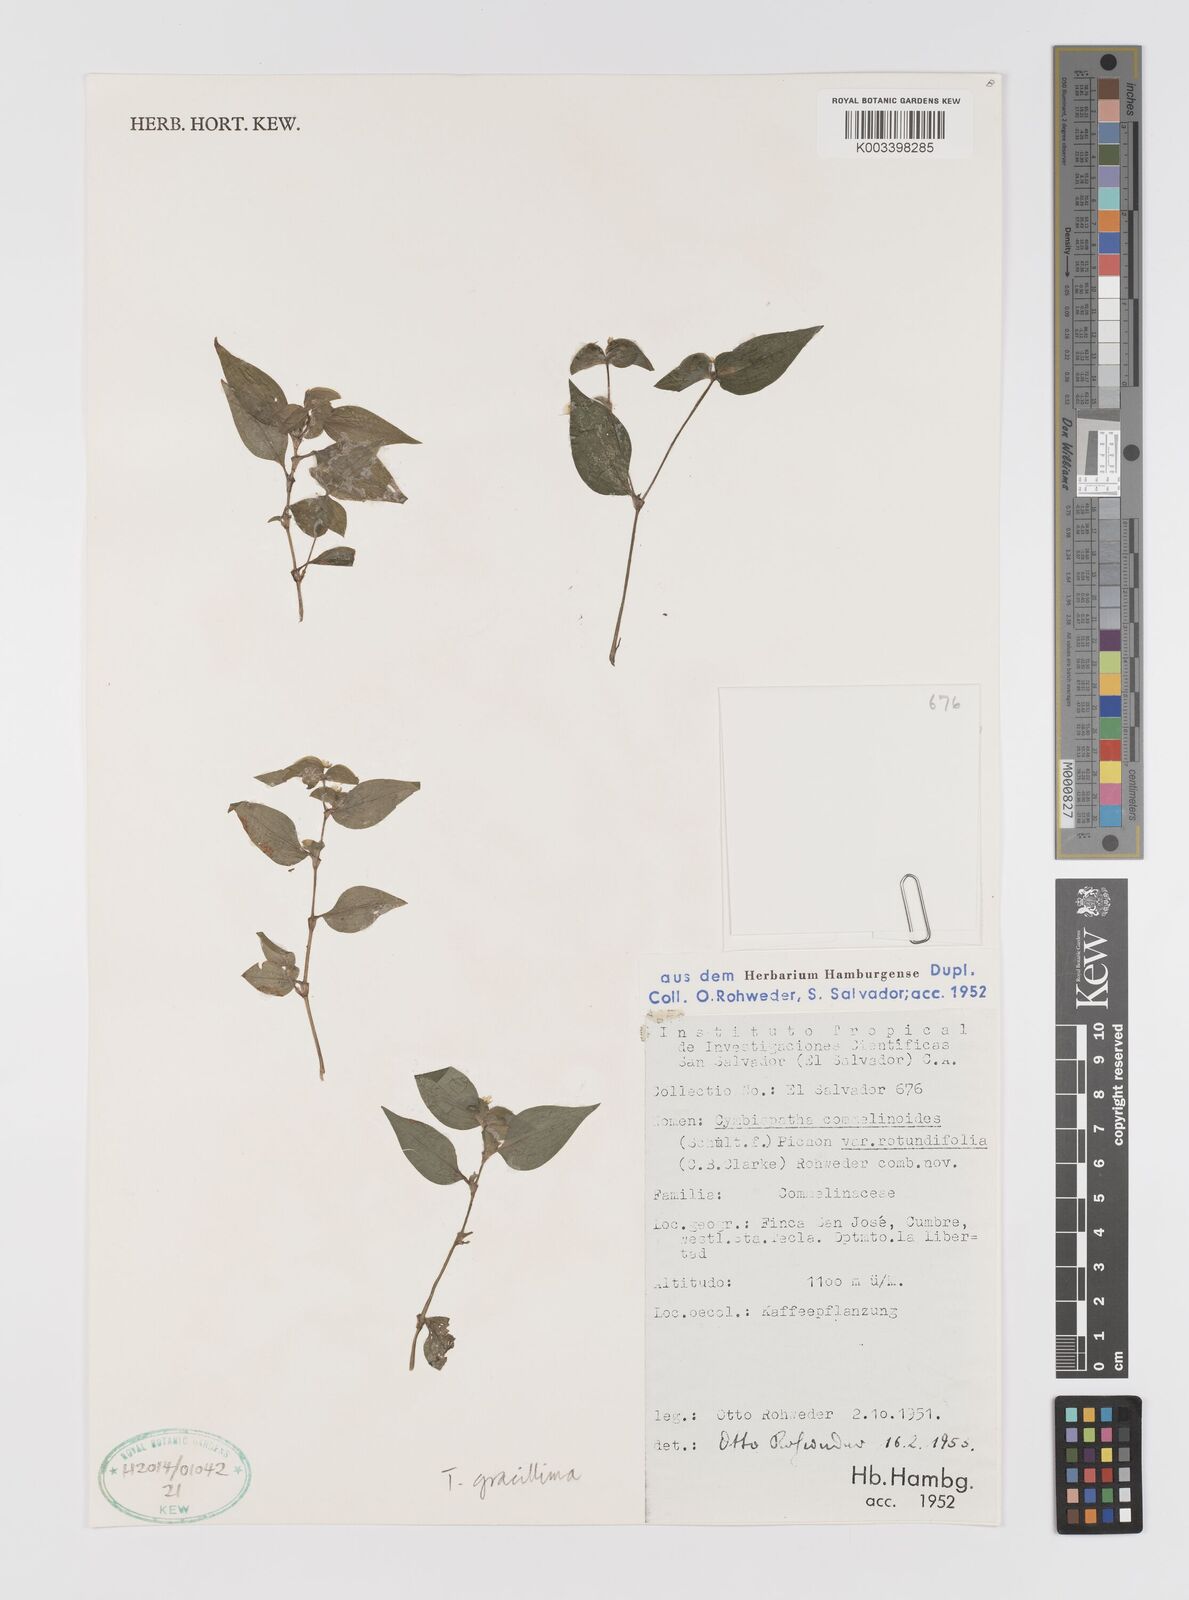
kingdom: Plantae
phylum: Tracheophyta
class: Liliopsida
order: Commelinales
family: Commelinaceae
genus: Tradescantia
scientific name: Tradescantia gracillima
